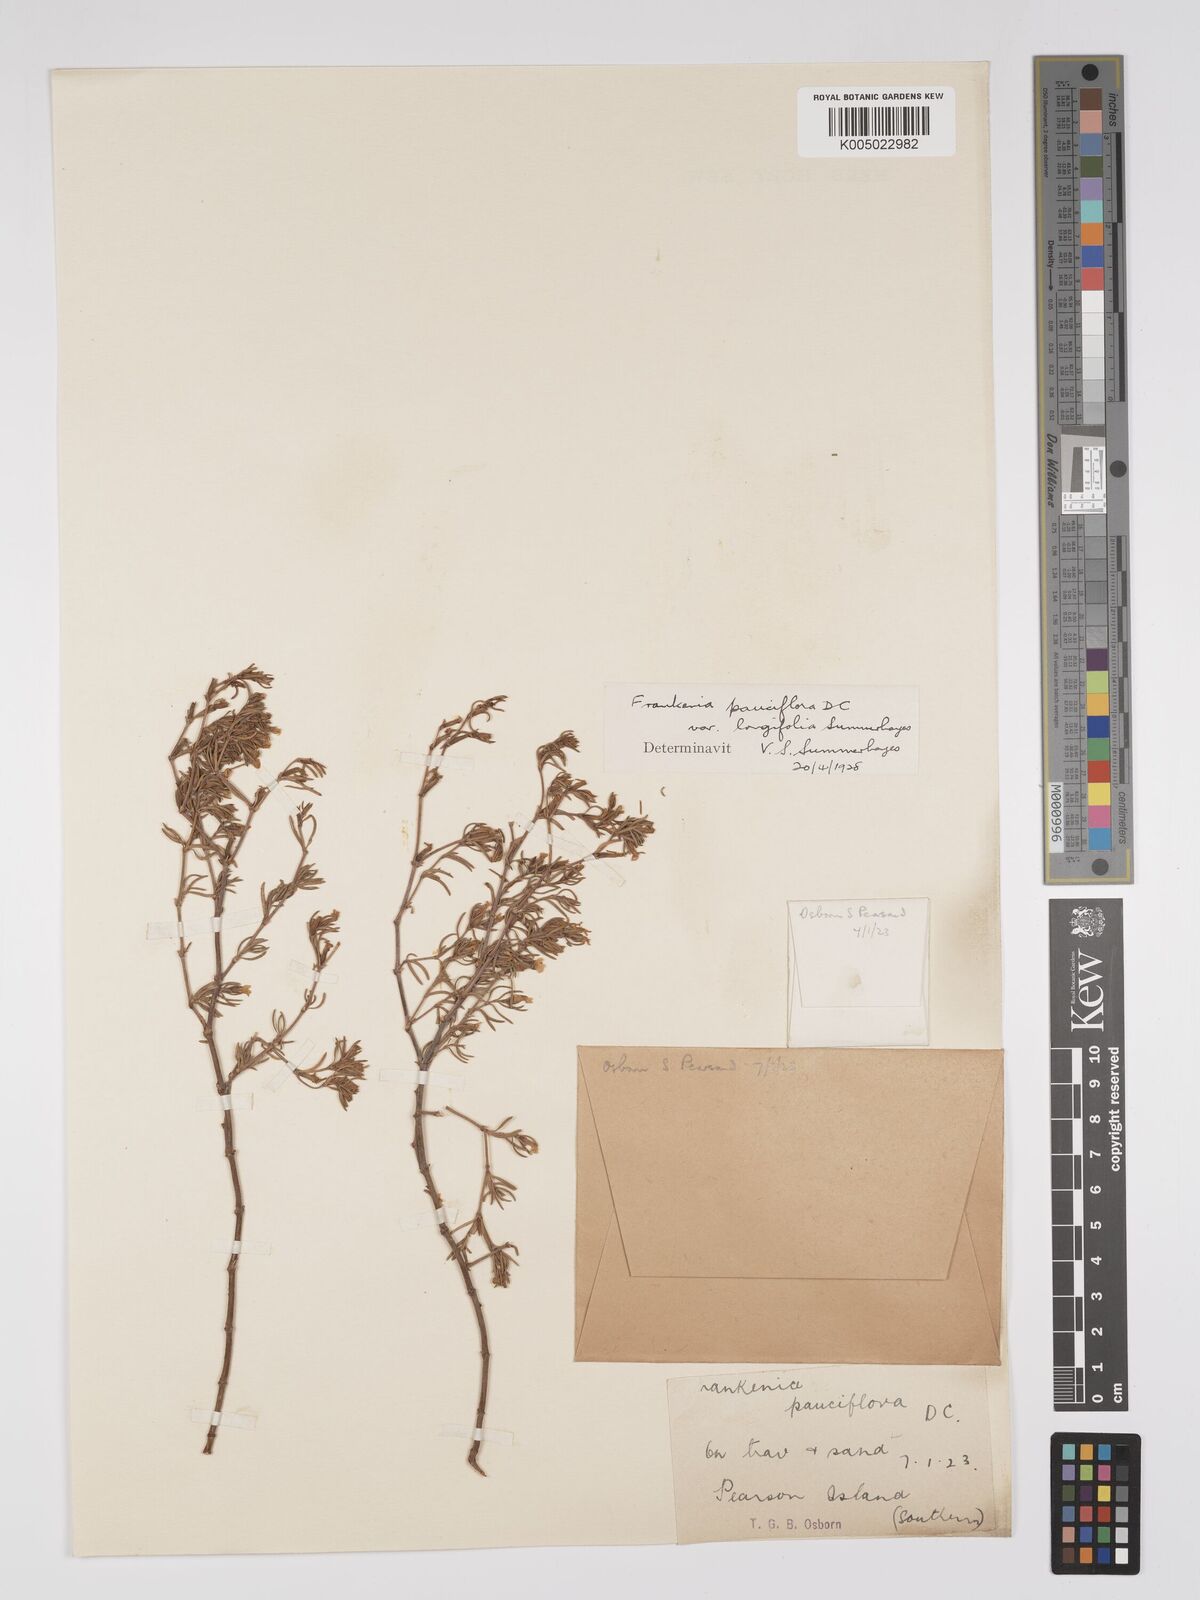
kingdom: Plantae
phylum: Tracheophyta
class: Magnoliopsida
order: Caryophyllales
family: Frankeniaceae
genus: Frankenia
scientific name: Frankenia pauciflora
